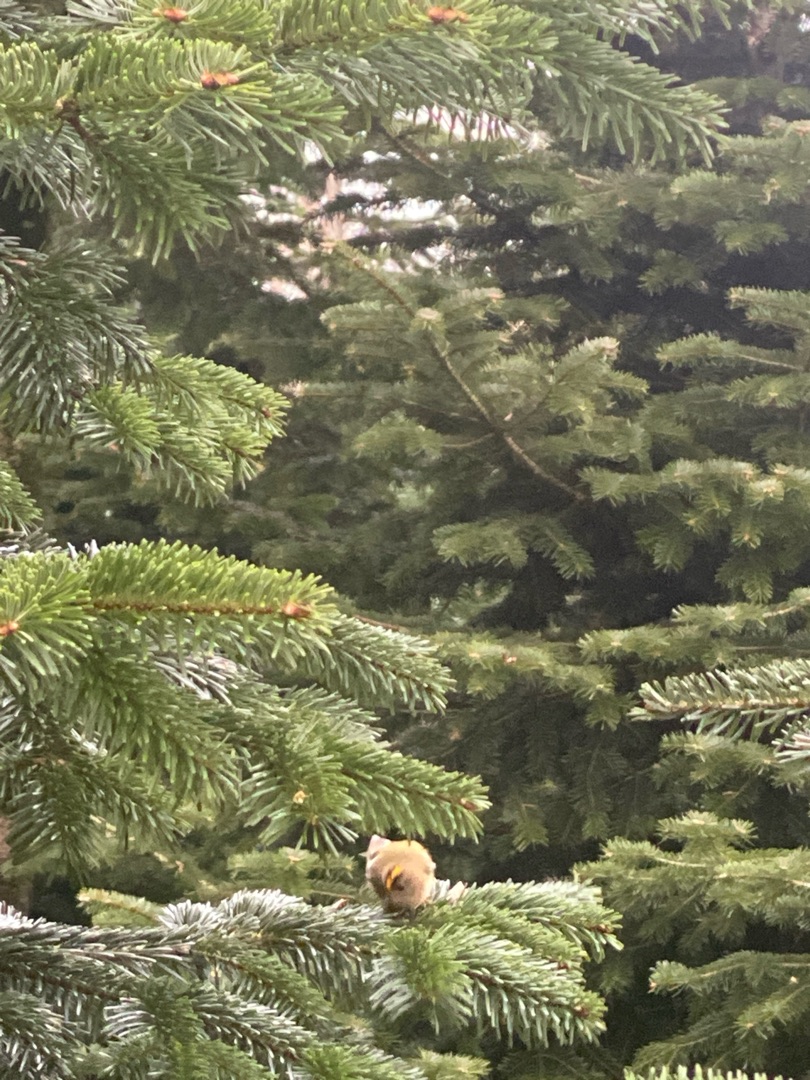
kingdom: Animalia
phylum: Chordata
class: Aves
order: Passeriformes
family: Regulidae
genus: Regulus
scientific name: Regulus regulus
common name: Fuglekonge
